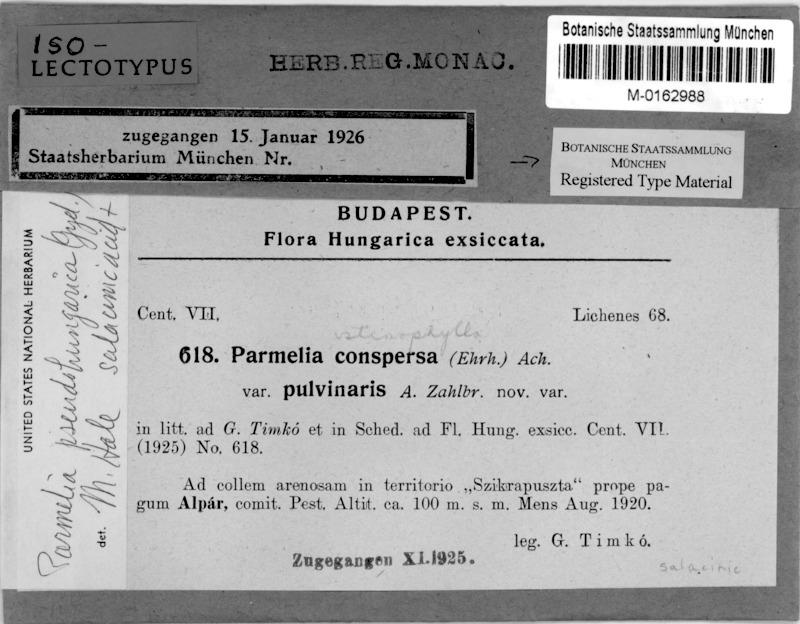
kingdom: Fungi
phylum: Ascomycota
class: Lecanoromycetes
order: Lecanorales
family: Parmeliaceae
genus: Xanthoparmelia
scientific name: Xanthoparmelia pseudohungarica
